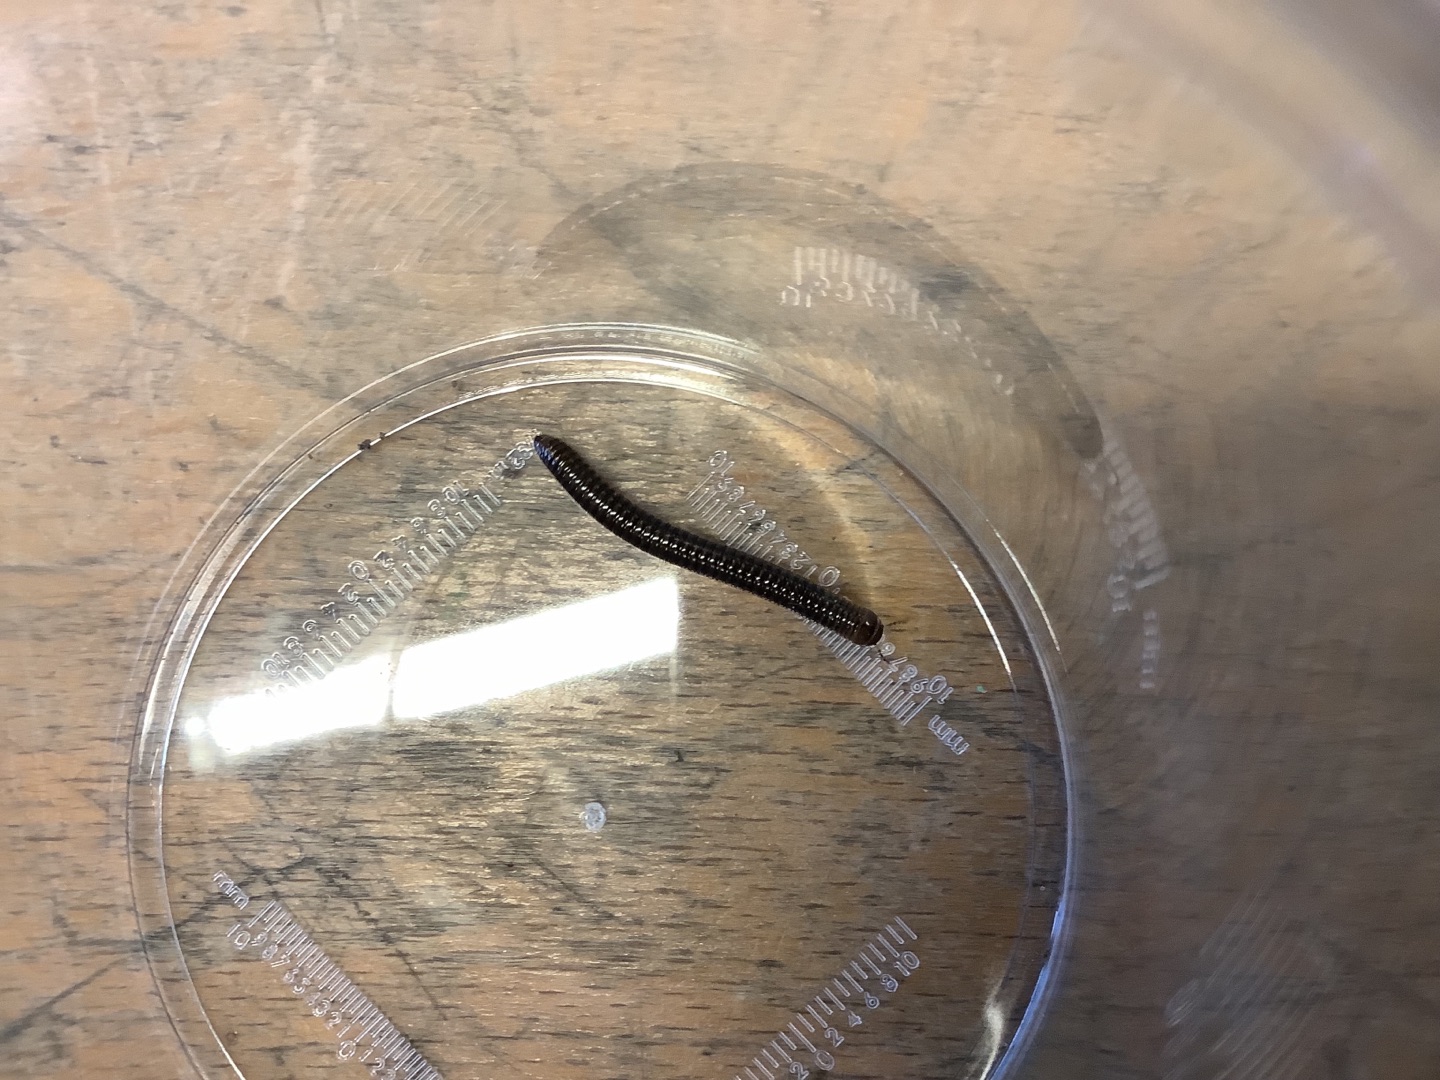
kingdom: Animalia
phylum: Arthropoda
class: Diplopoda
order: Julida
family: Julidae
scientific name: Julidae
